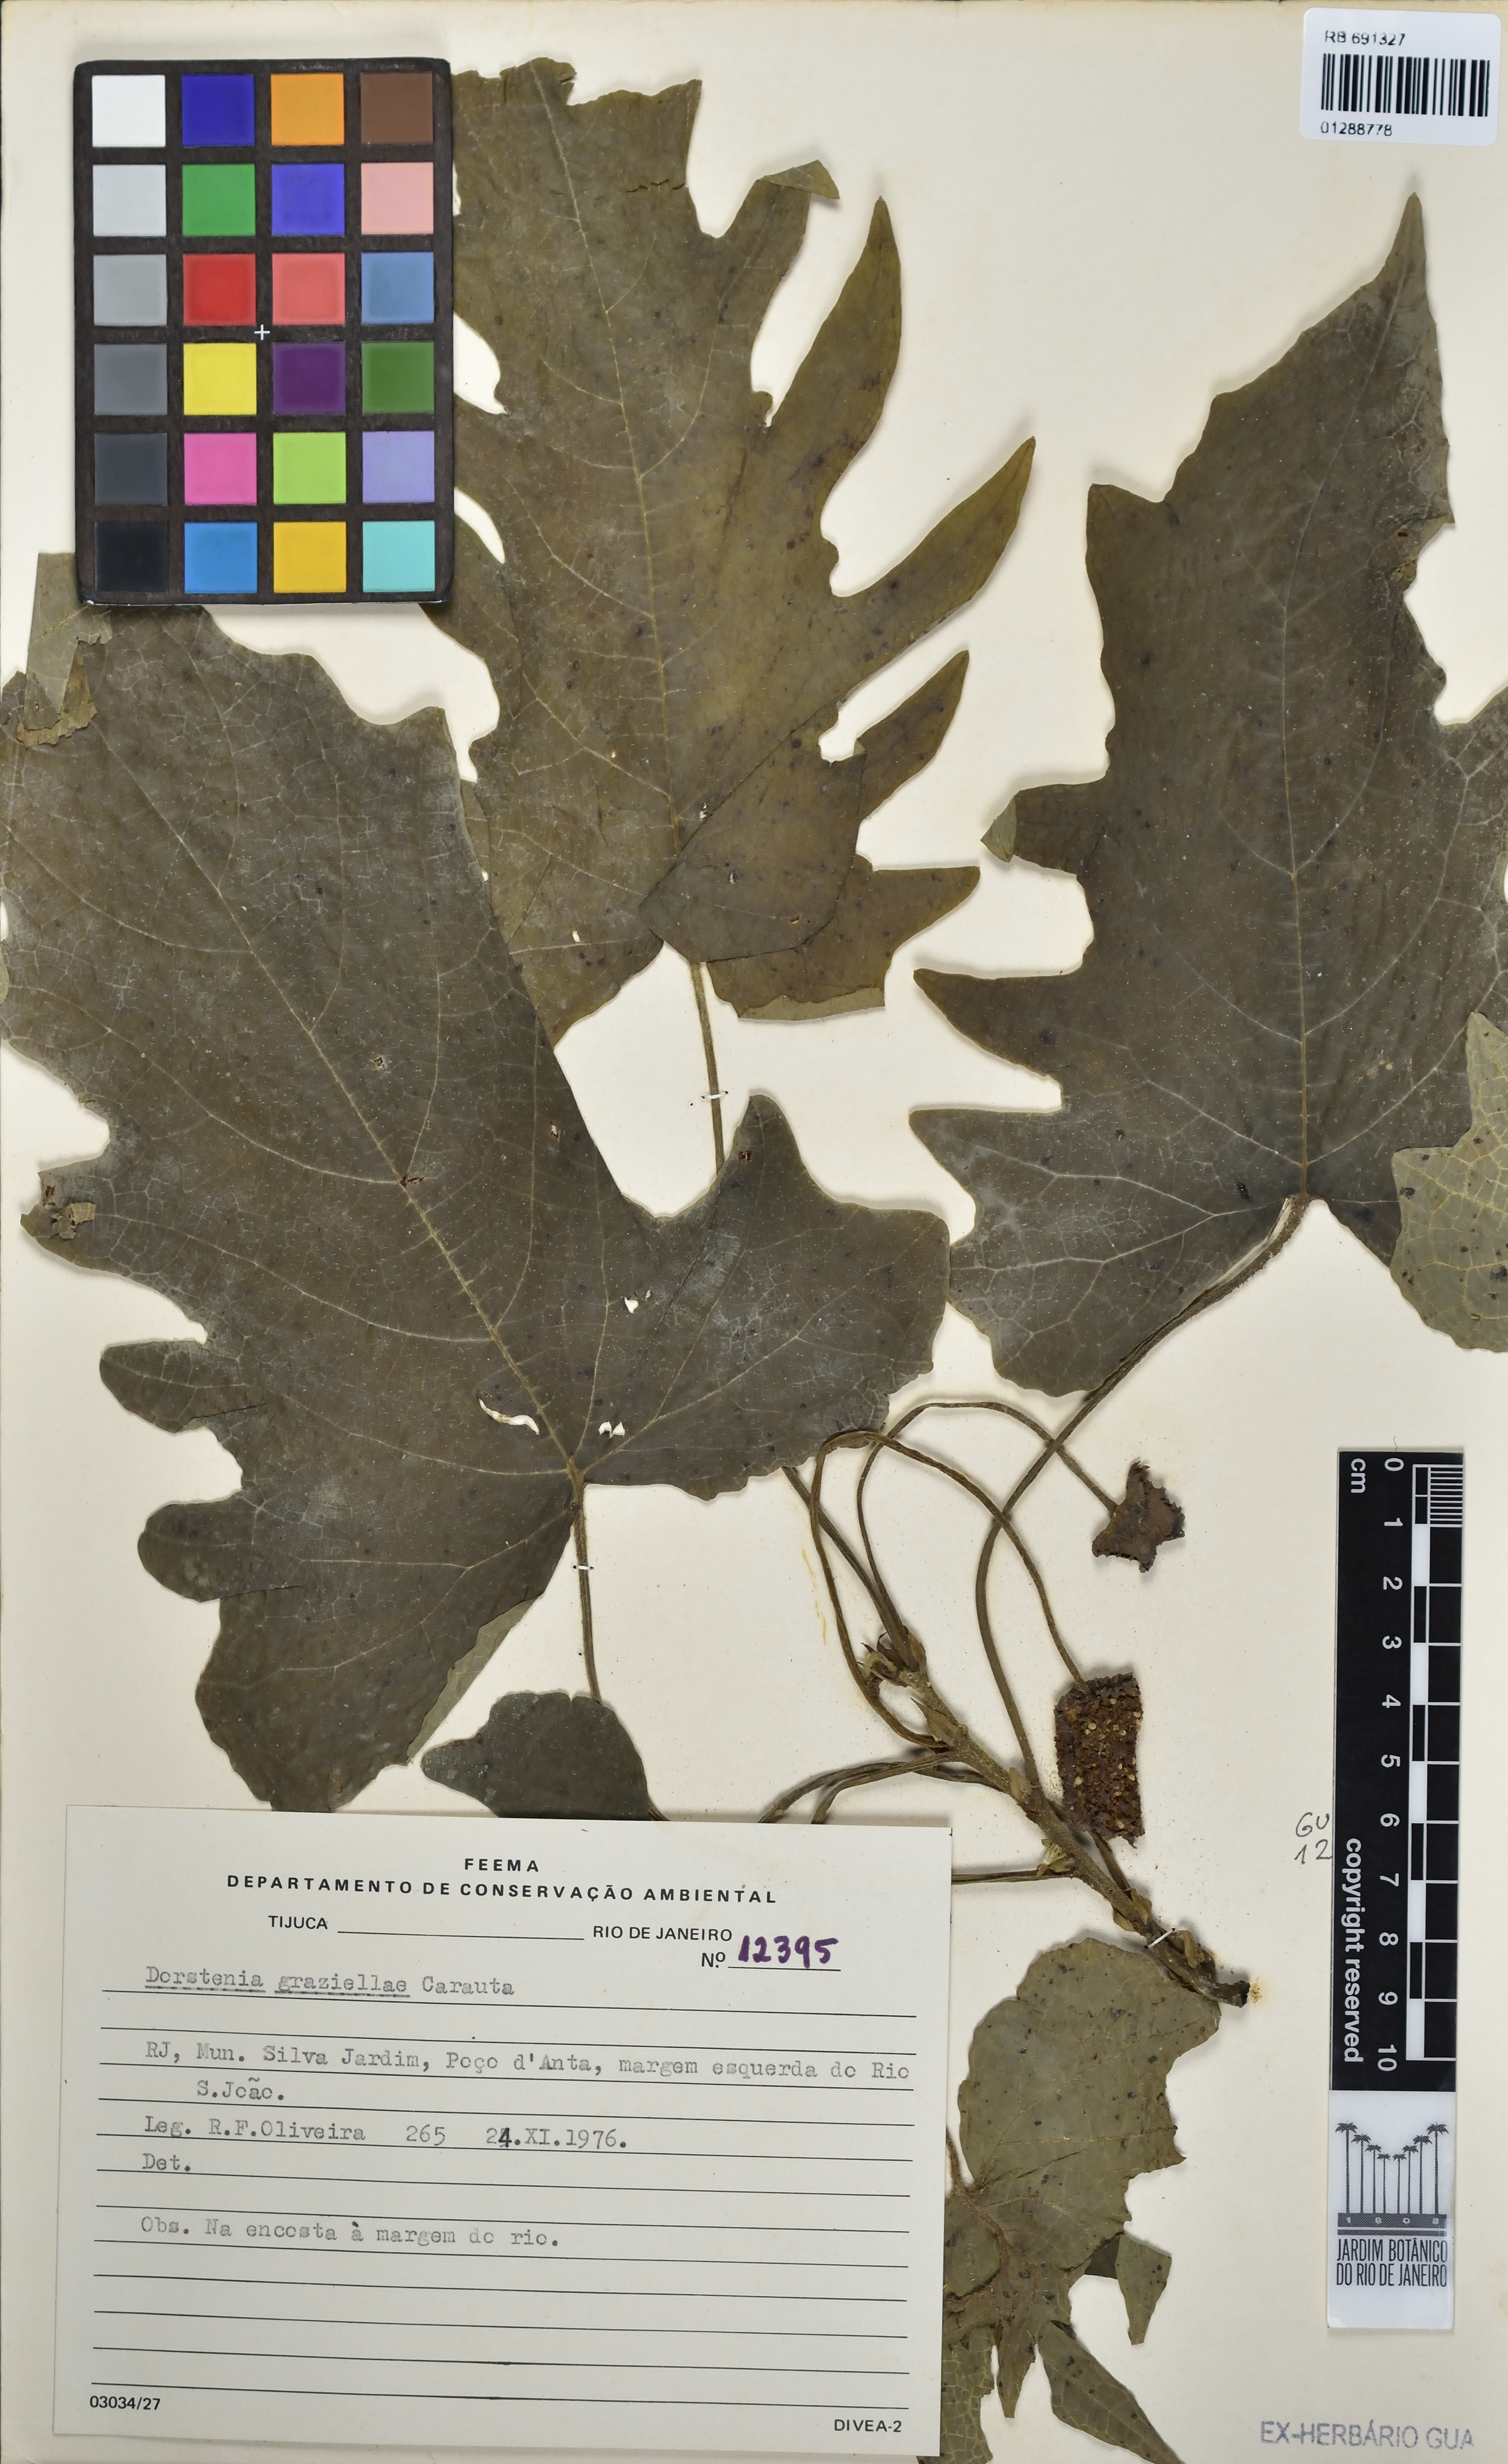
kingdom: Plantae
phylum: Tracheophyta
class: Magnoliopsida
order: Rosales
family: Moraceae
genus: Dorstenia
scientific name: Dorstenia grazielae
